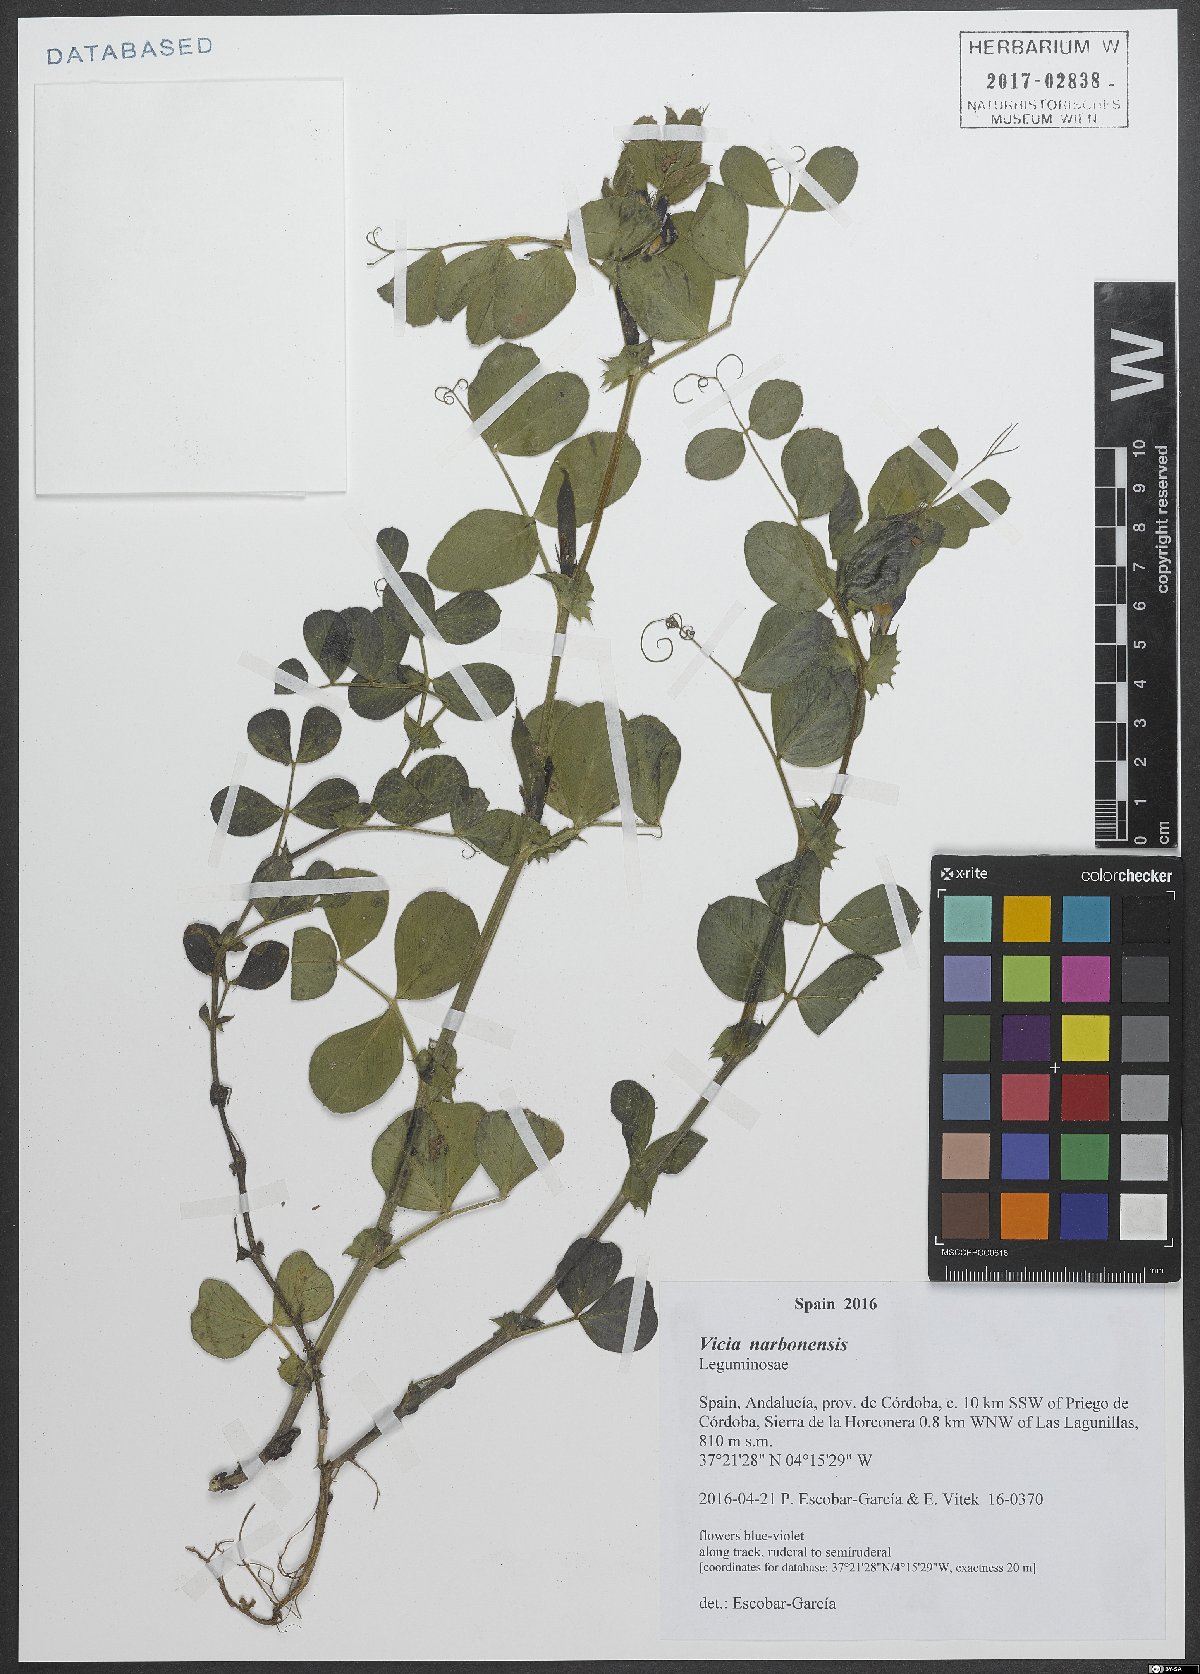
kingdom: Plantae
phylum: Tracheophyta
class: Magnoliopsida
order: Fabales
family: Fabaceae
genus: Vicia
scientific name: Vicia narbonensis
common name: Narbonne vetch
